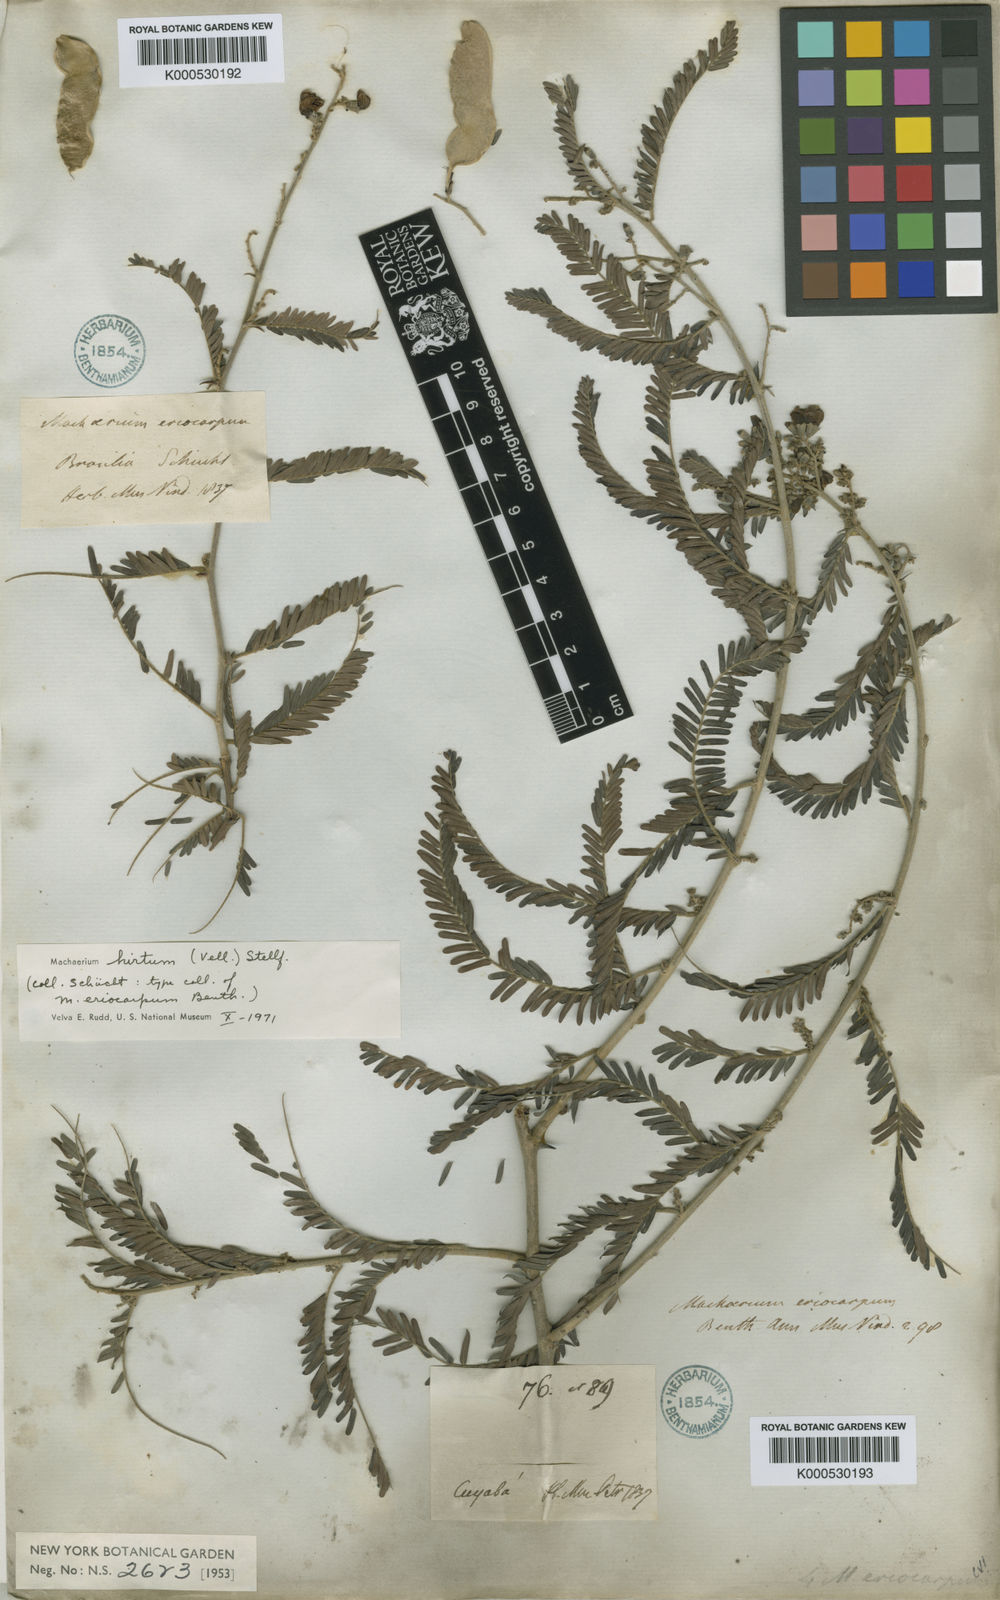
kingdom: Plantae
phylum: Tracheophyta
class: Magnoliopsida
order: Fabales
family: Fabaceae
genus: Machaerium
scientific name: Machaerium hirtum
